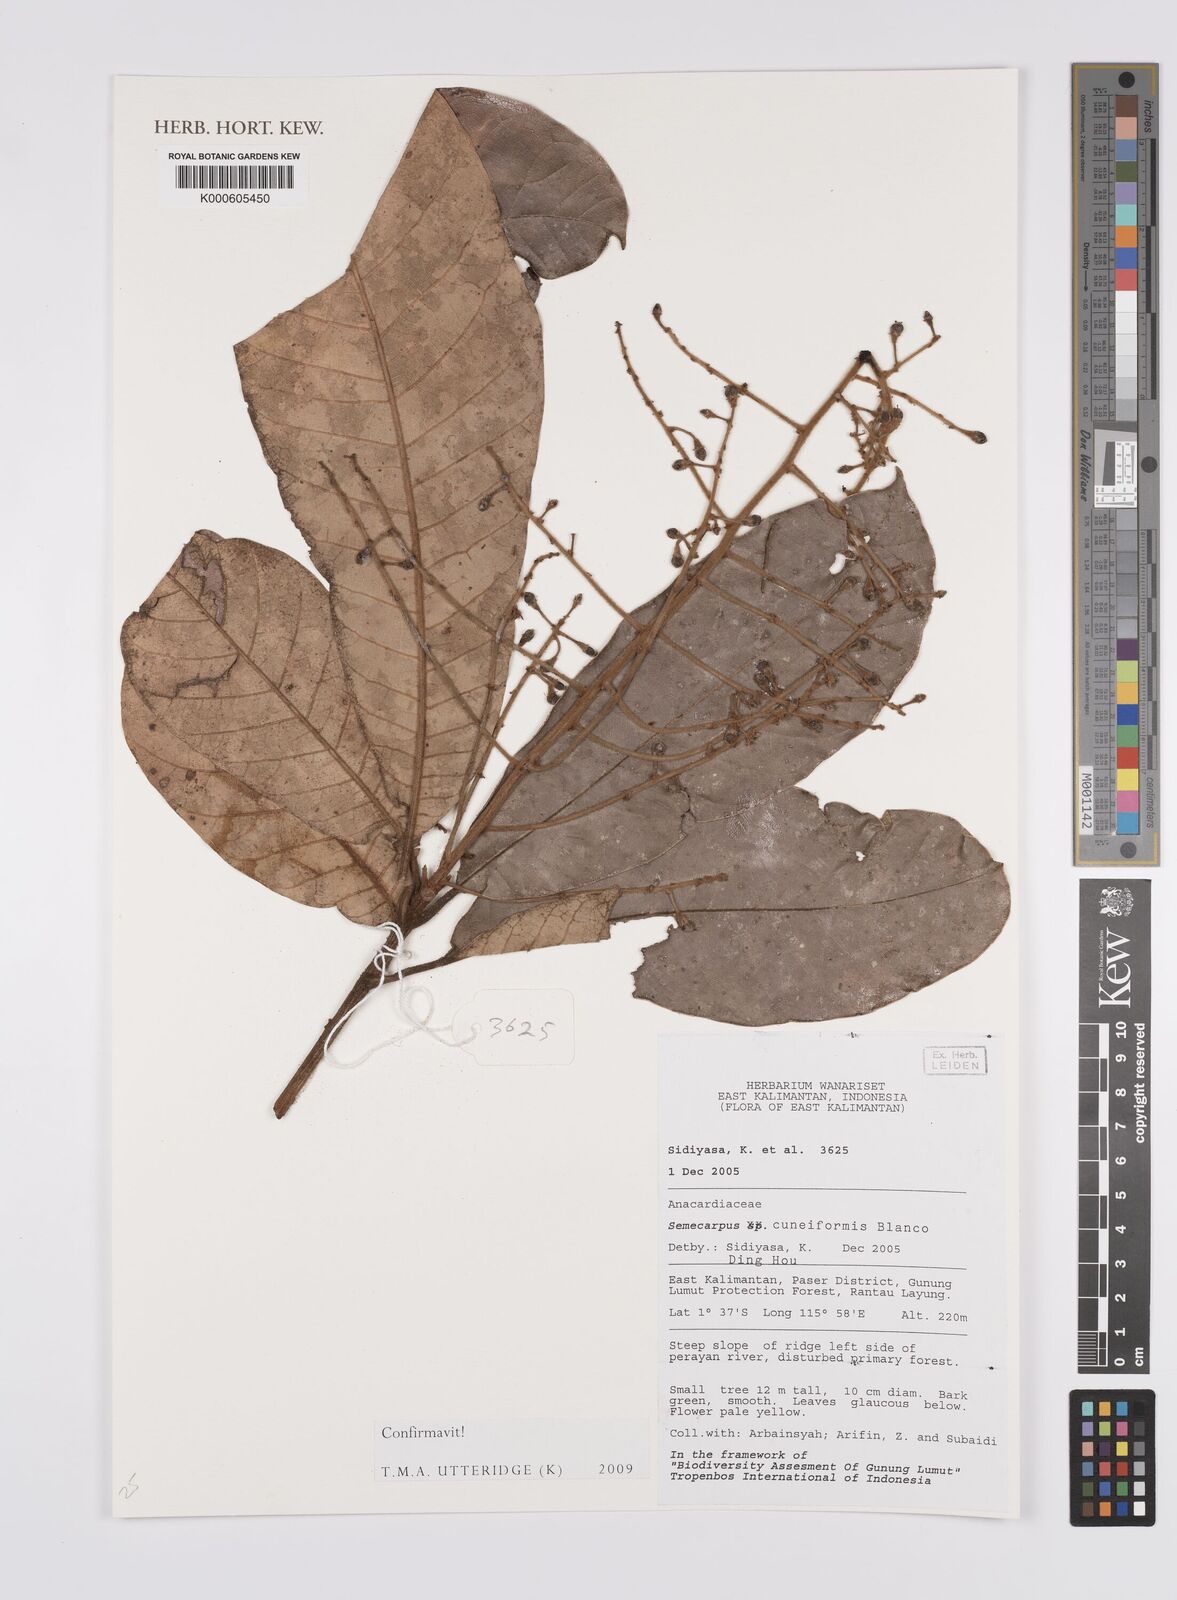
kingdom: Plantae
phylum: Tracheophyta
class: Magnoliopsida
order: Sapindales
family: Anacardiaceae
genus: Semecarpus
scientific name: Semecarpus cuneiformis
